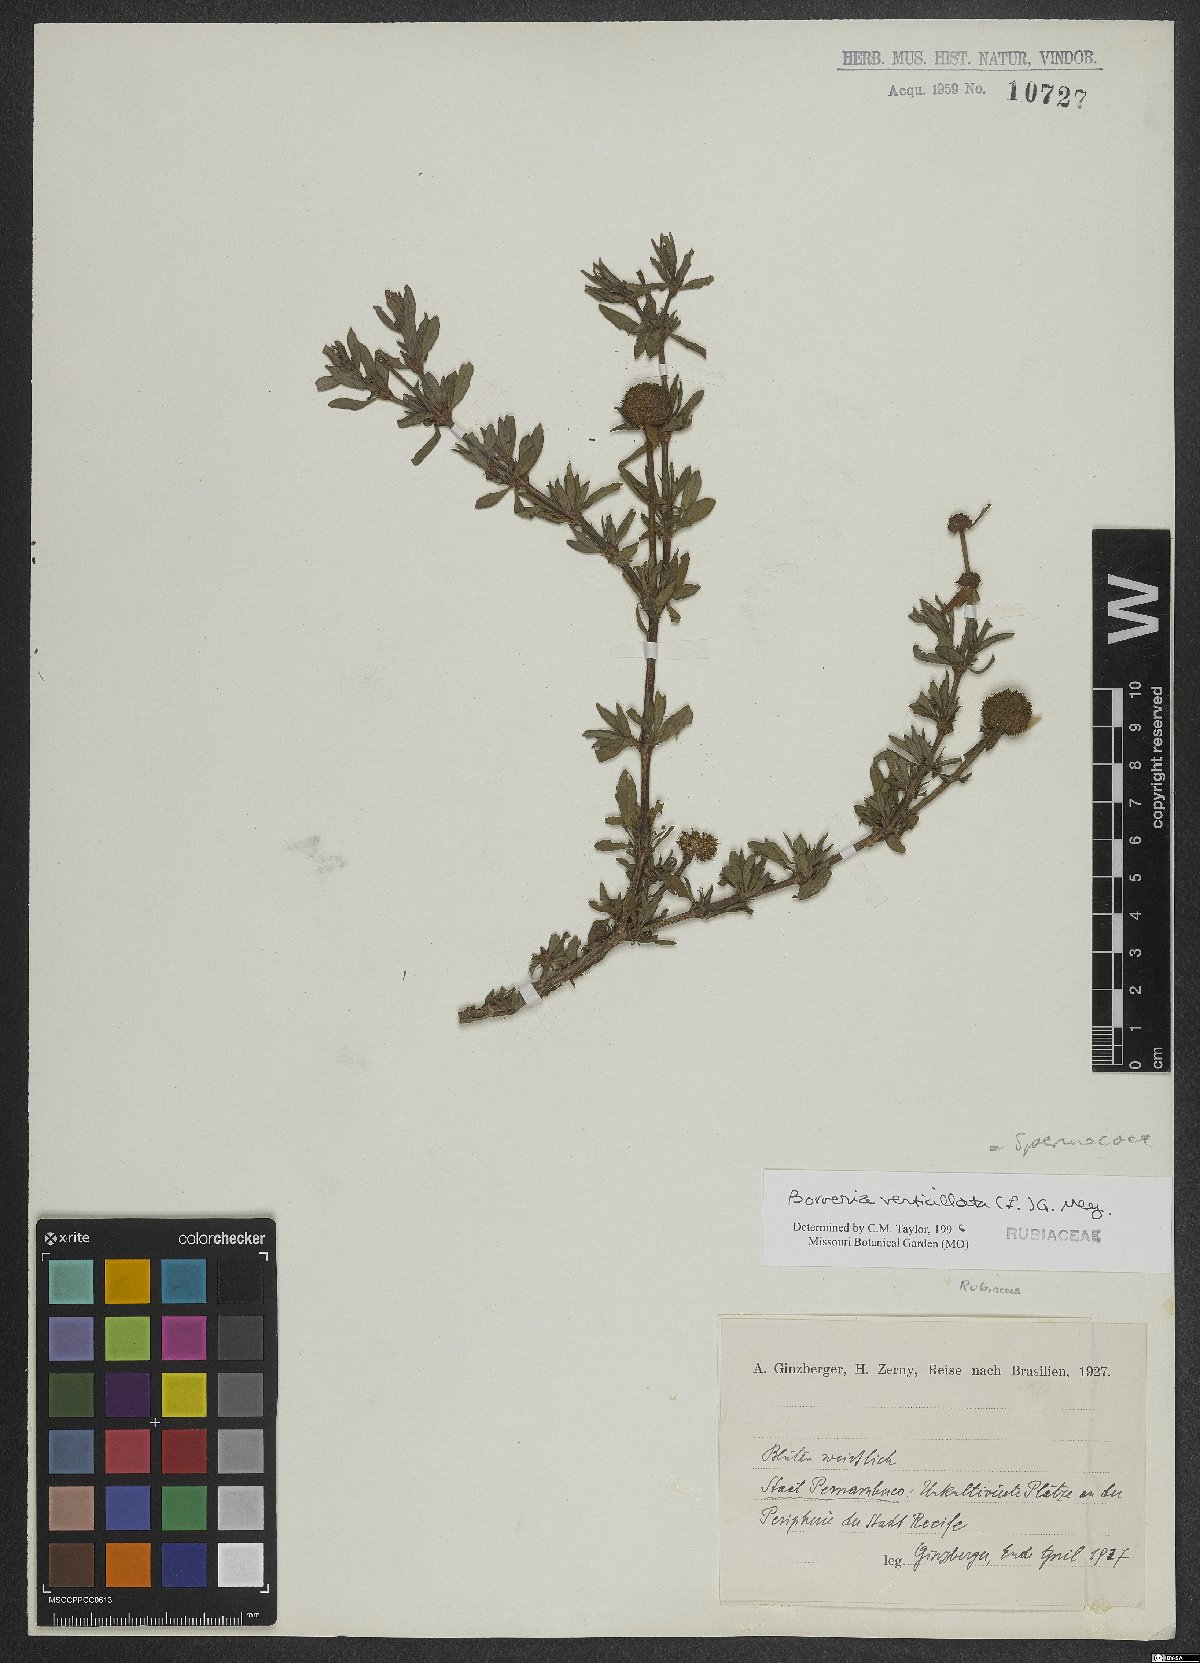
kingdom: Plantae
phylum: Tracheophyta
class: Magnoliopsida
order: Gentianales
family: Rubiaceae
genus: Spermacoce
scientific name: Spermacoce verticillata
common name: Shrubby false buttonweed
